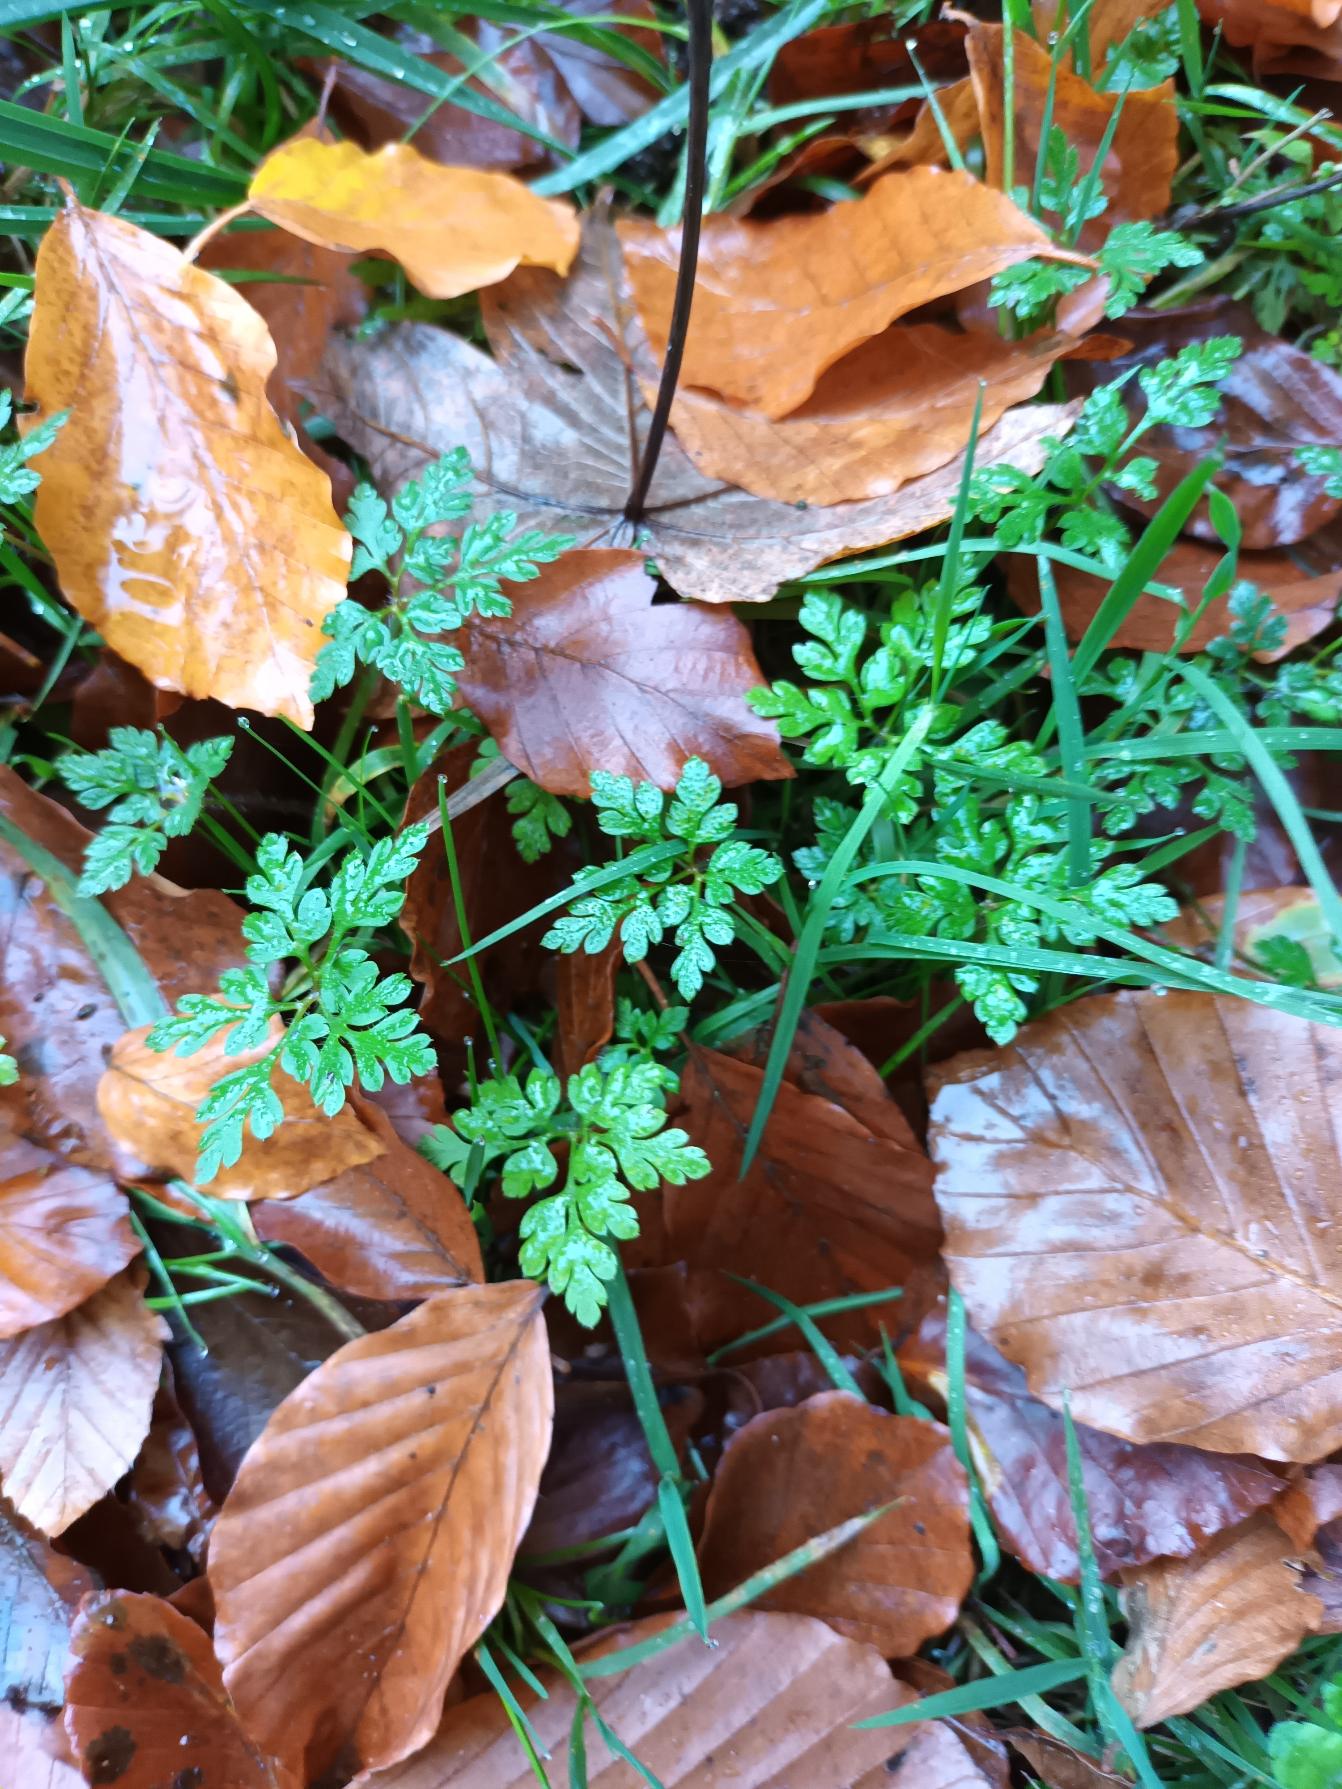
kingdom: Plantae
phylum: Tracheophyta
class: Magnoliopsida
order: Geraniales
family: Geraniaceae
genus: Geranium
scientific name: Geranium robertianum
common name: Stinkende storkenæb
